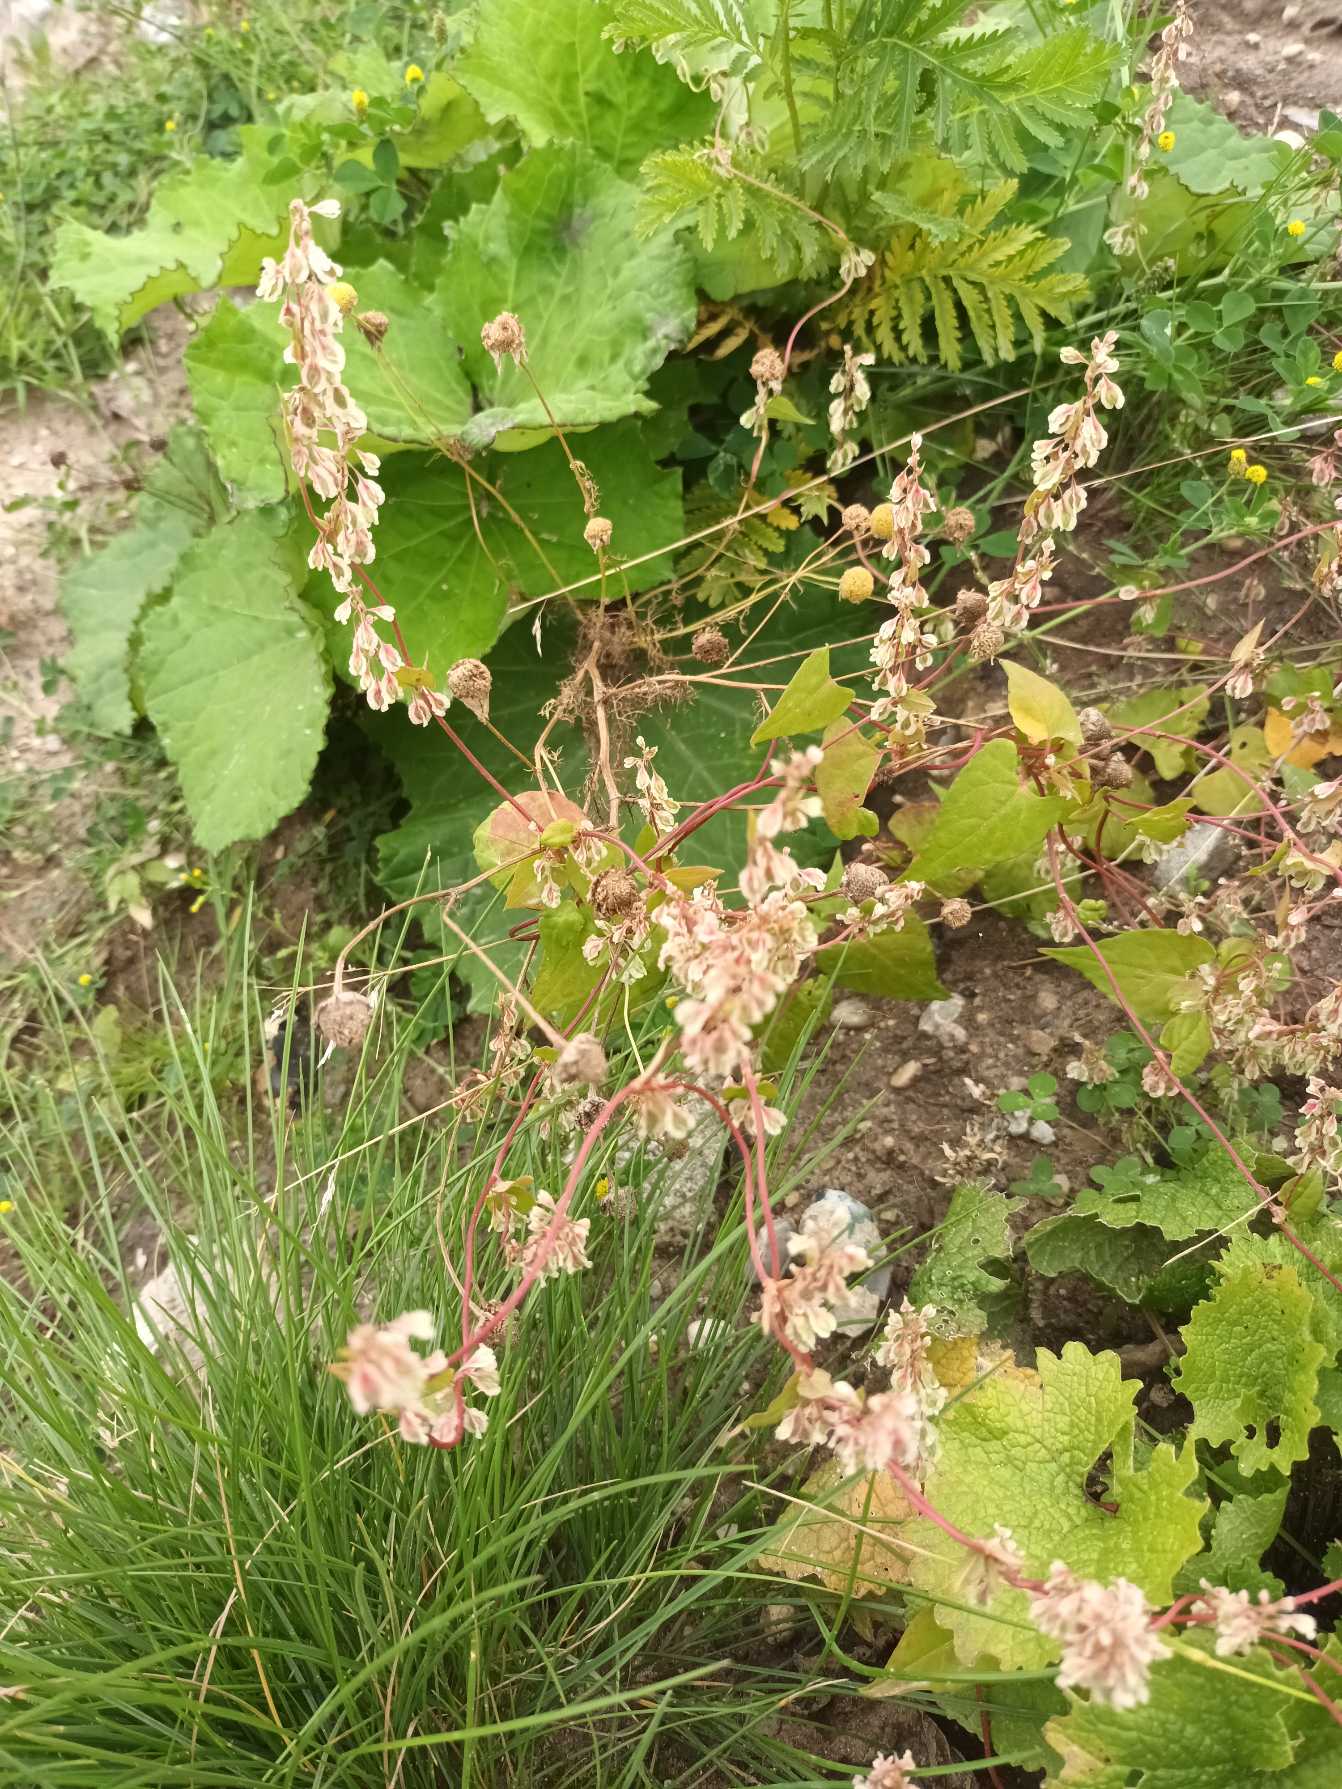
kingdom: Plantae
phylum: Tracheophyta
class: Magnoliopsida
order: Caryophyllales
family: Polygonaceae
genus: Fallopia
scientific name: Fallopia dumetorum
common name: Vinge-pileurt
